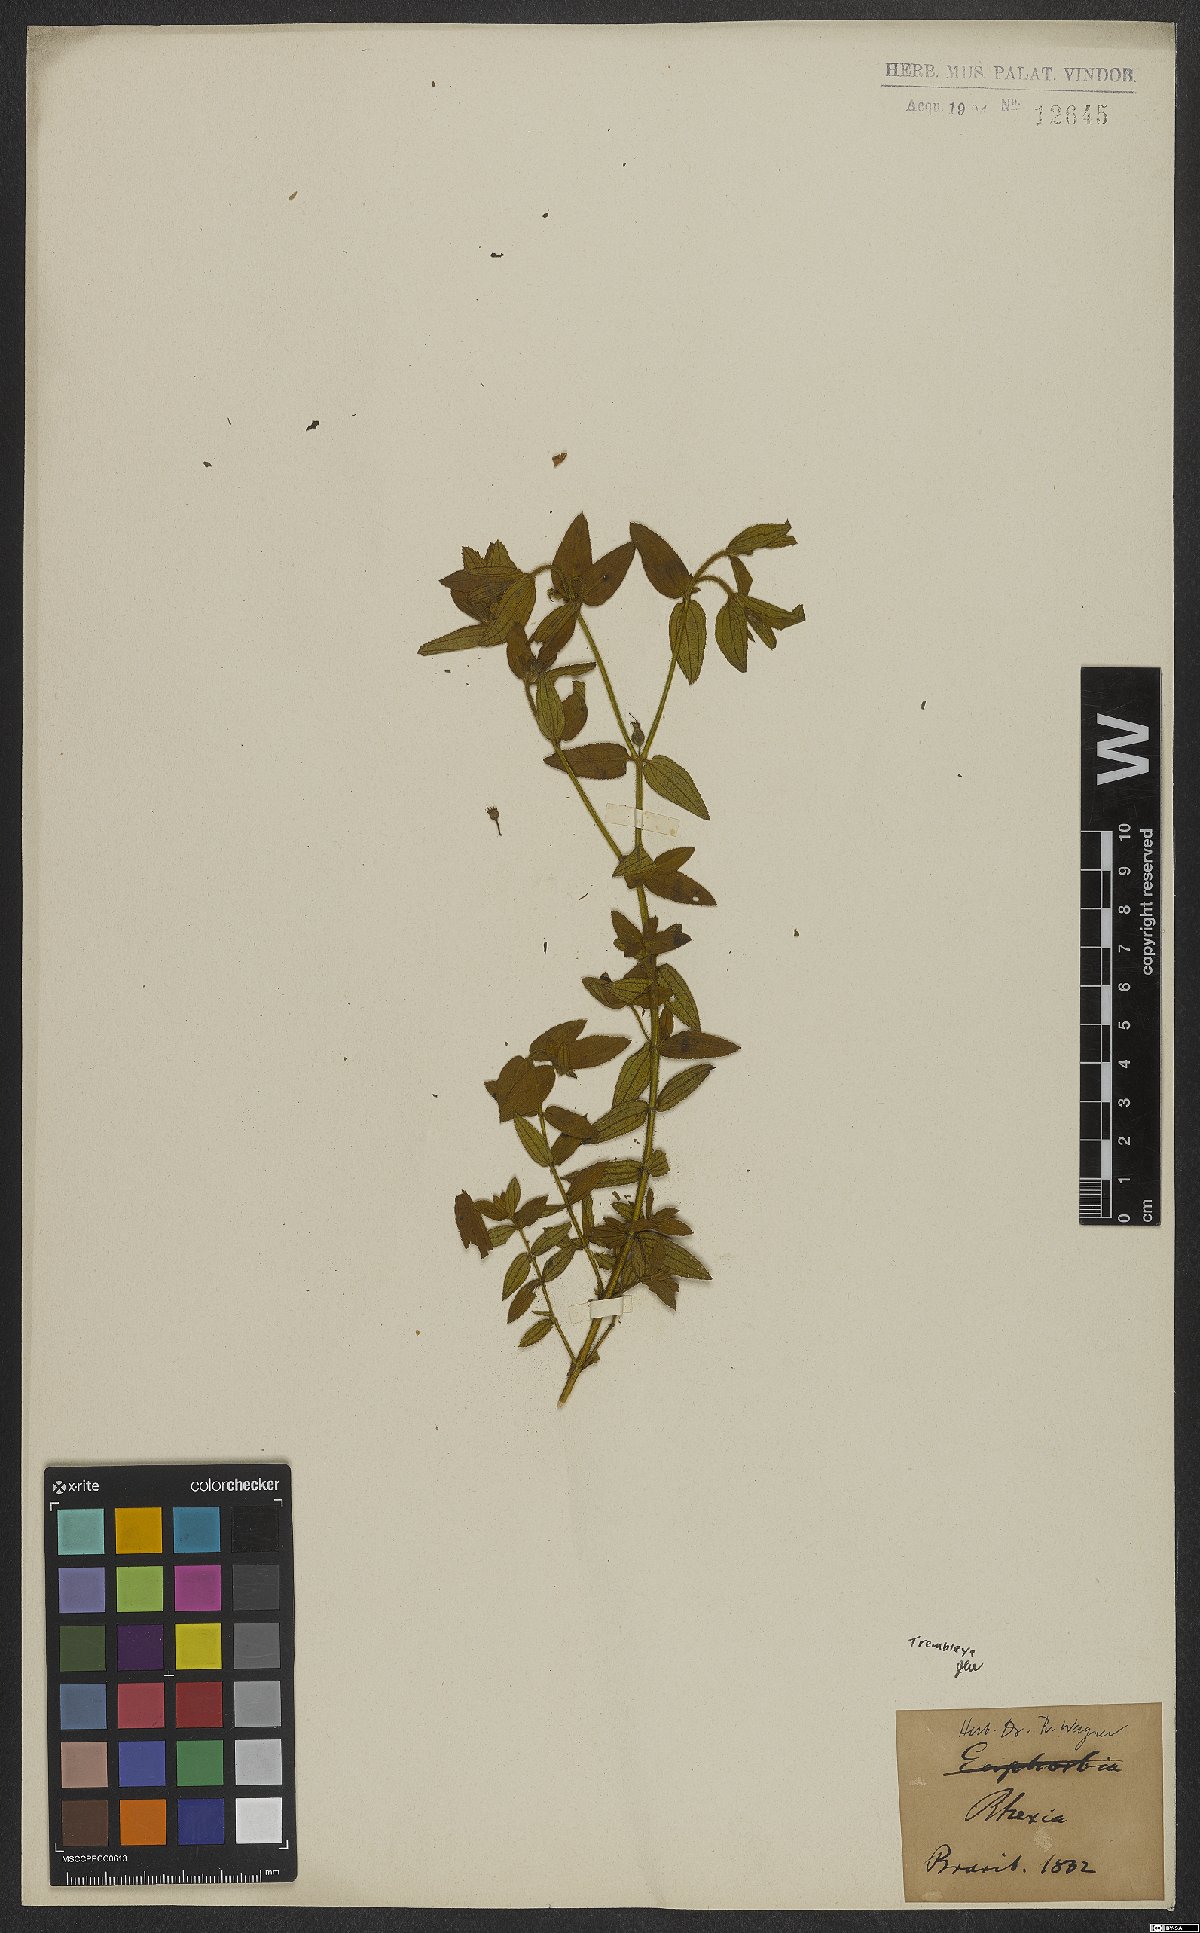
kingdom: Plantae
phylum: Tracheophyta
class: Magnoliopsida
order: Myrtales
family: Melastomataceae
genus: Microlicia
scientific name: Microlicia
